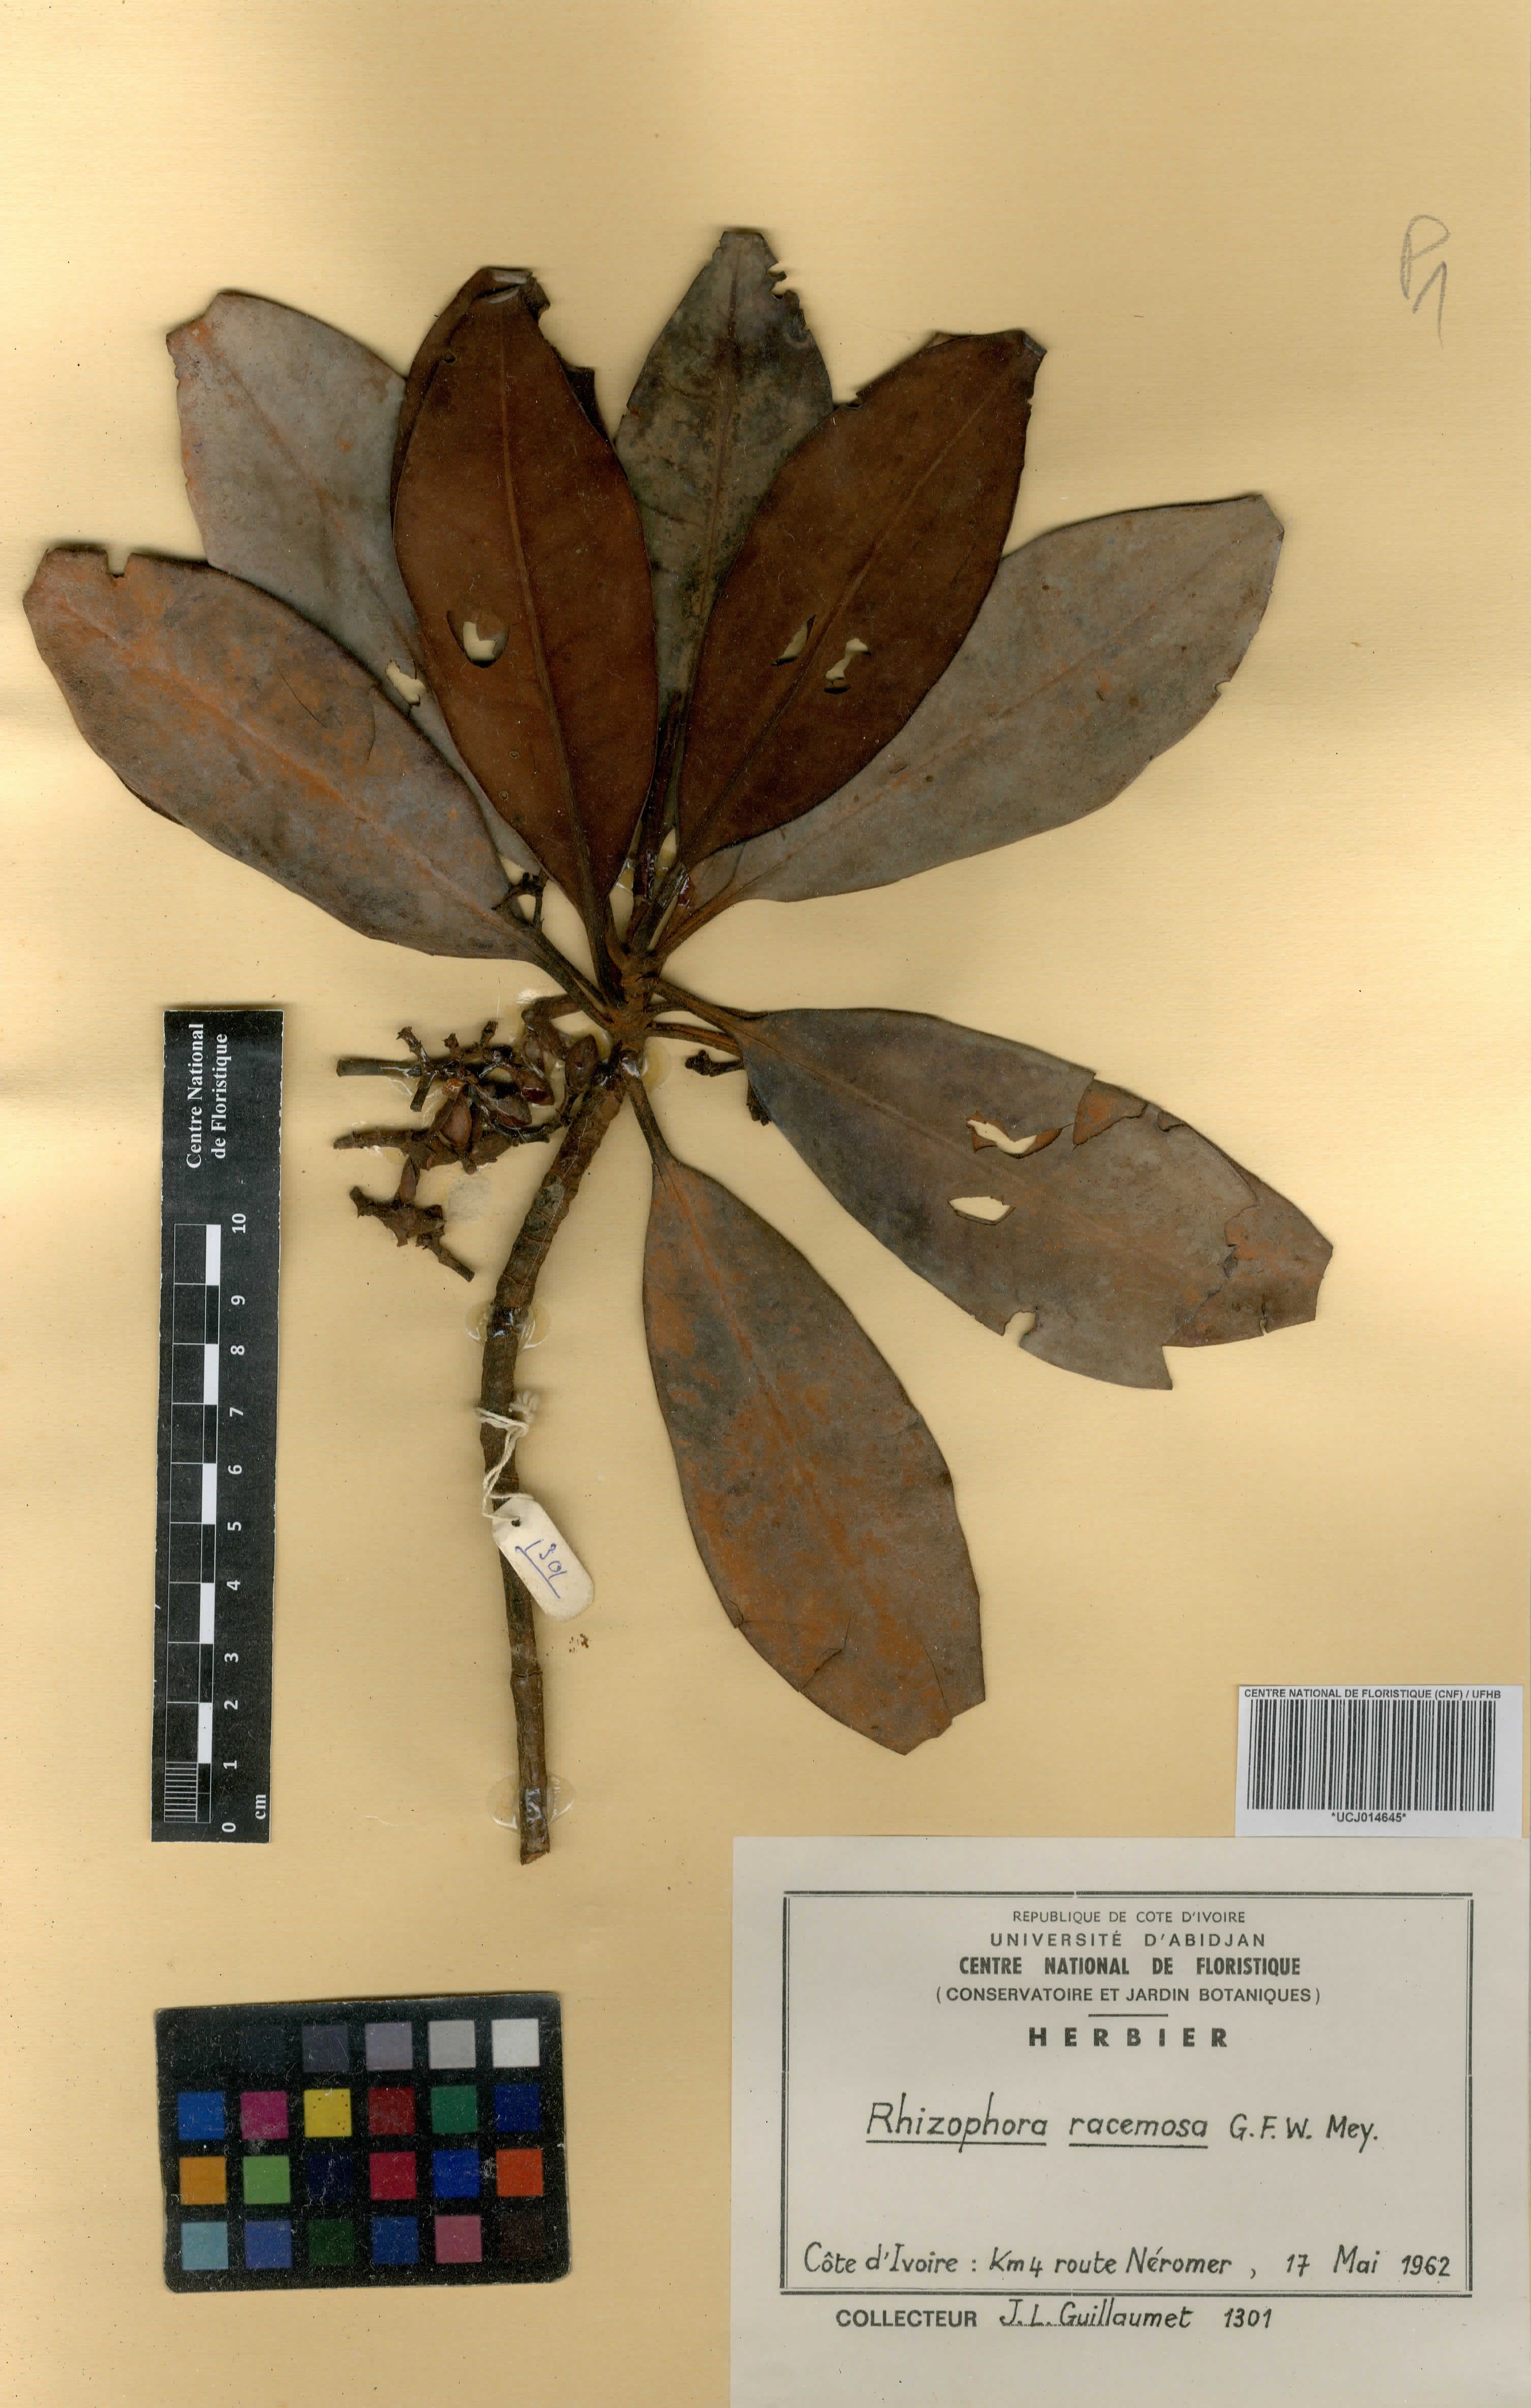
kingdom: Plantae
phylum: Tracheophyta
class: Magnoliopsida
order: Malpighiales
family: Rhizophoraceae
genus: Rhizophora
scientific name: Rhizophora racemosa
